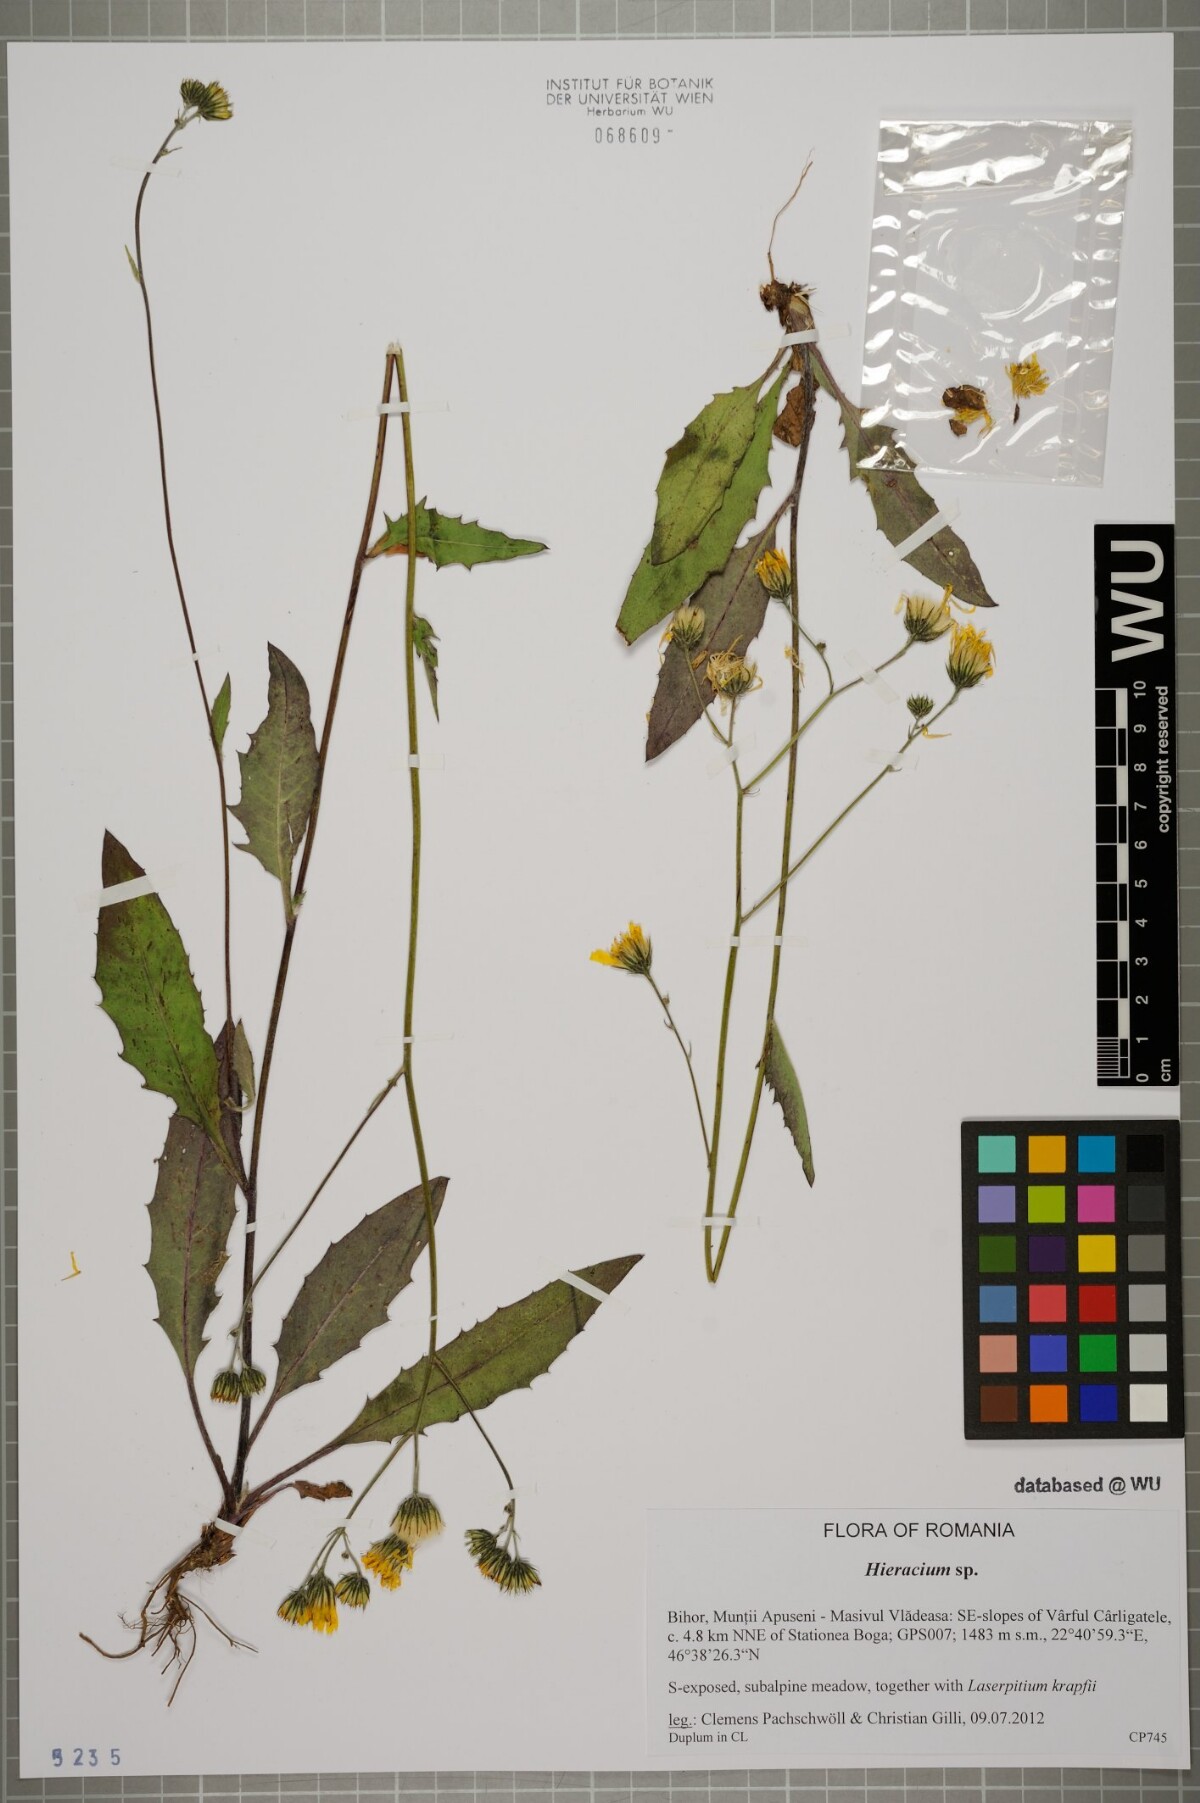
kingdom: Plantae
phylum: Tracheophyta
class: Magnoliopsida
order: Asterales
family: Asteraceae
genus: Hieracium
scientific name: Hieracium
